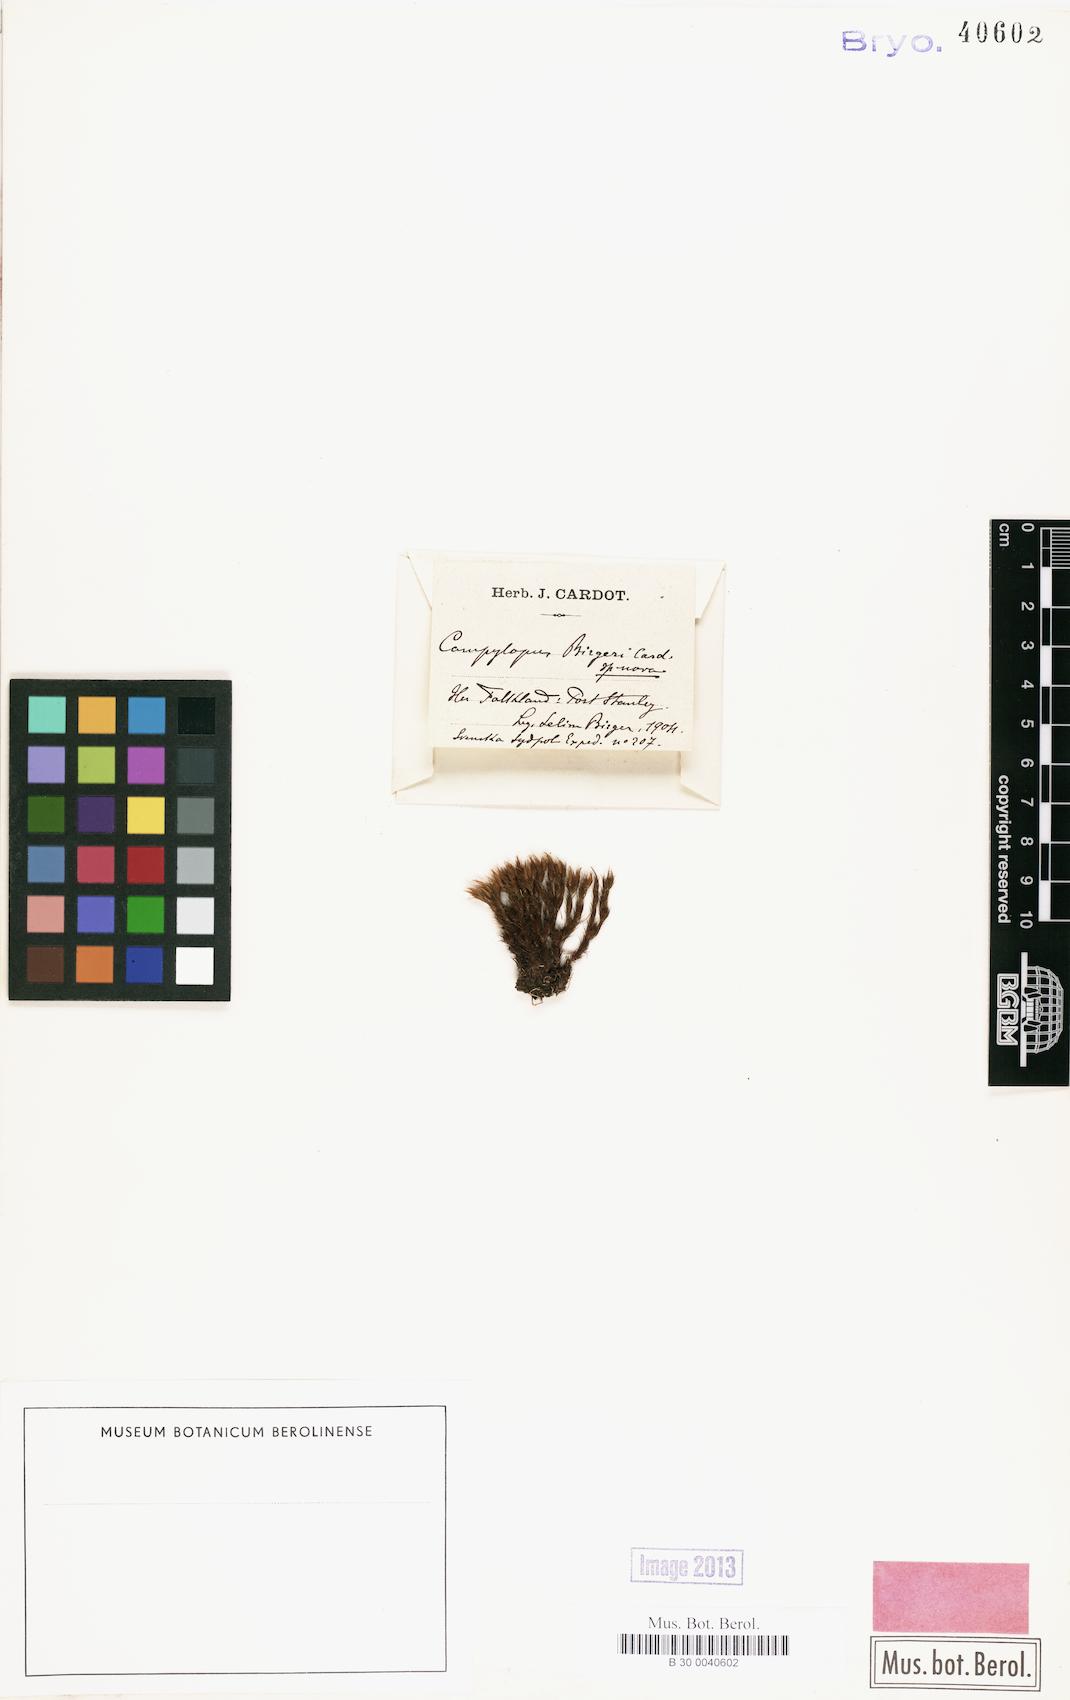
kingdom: Plantae
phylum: Bryophyta
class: Bryopsida
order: Dicranales
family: Leucobryaceae
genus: Campylopus
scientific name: Campylopus acuminatus
